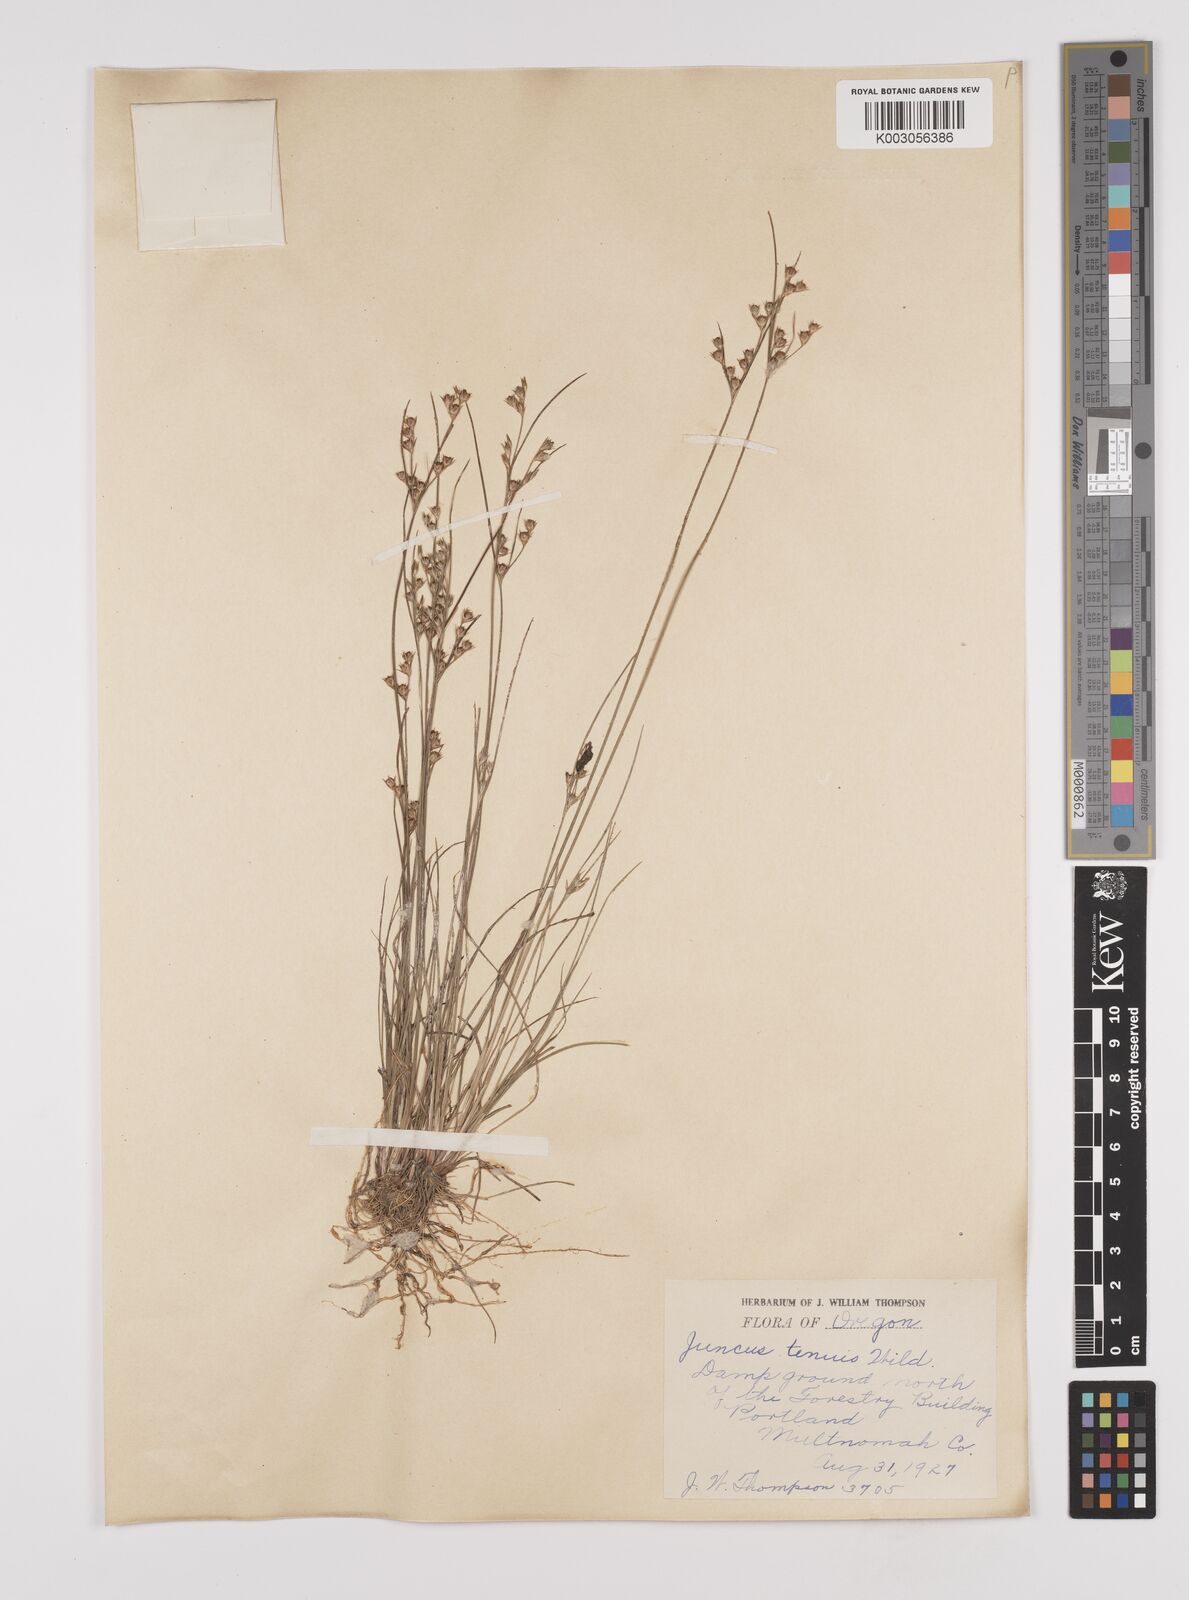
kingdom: Plantae
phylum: Tracheophyta
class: Liliopsida
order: Poales
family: Juncaceae
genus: Juncus
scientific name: Juncus tenuis
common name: Slender rush
